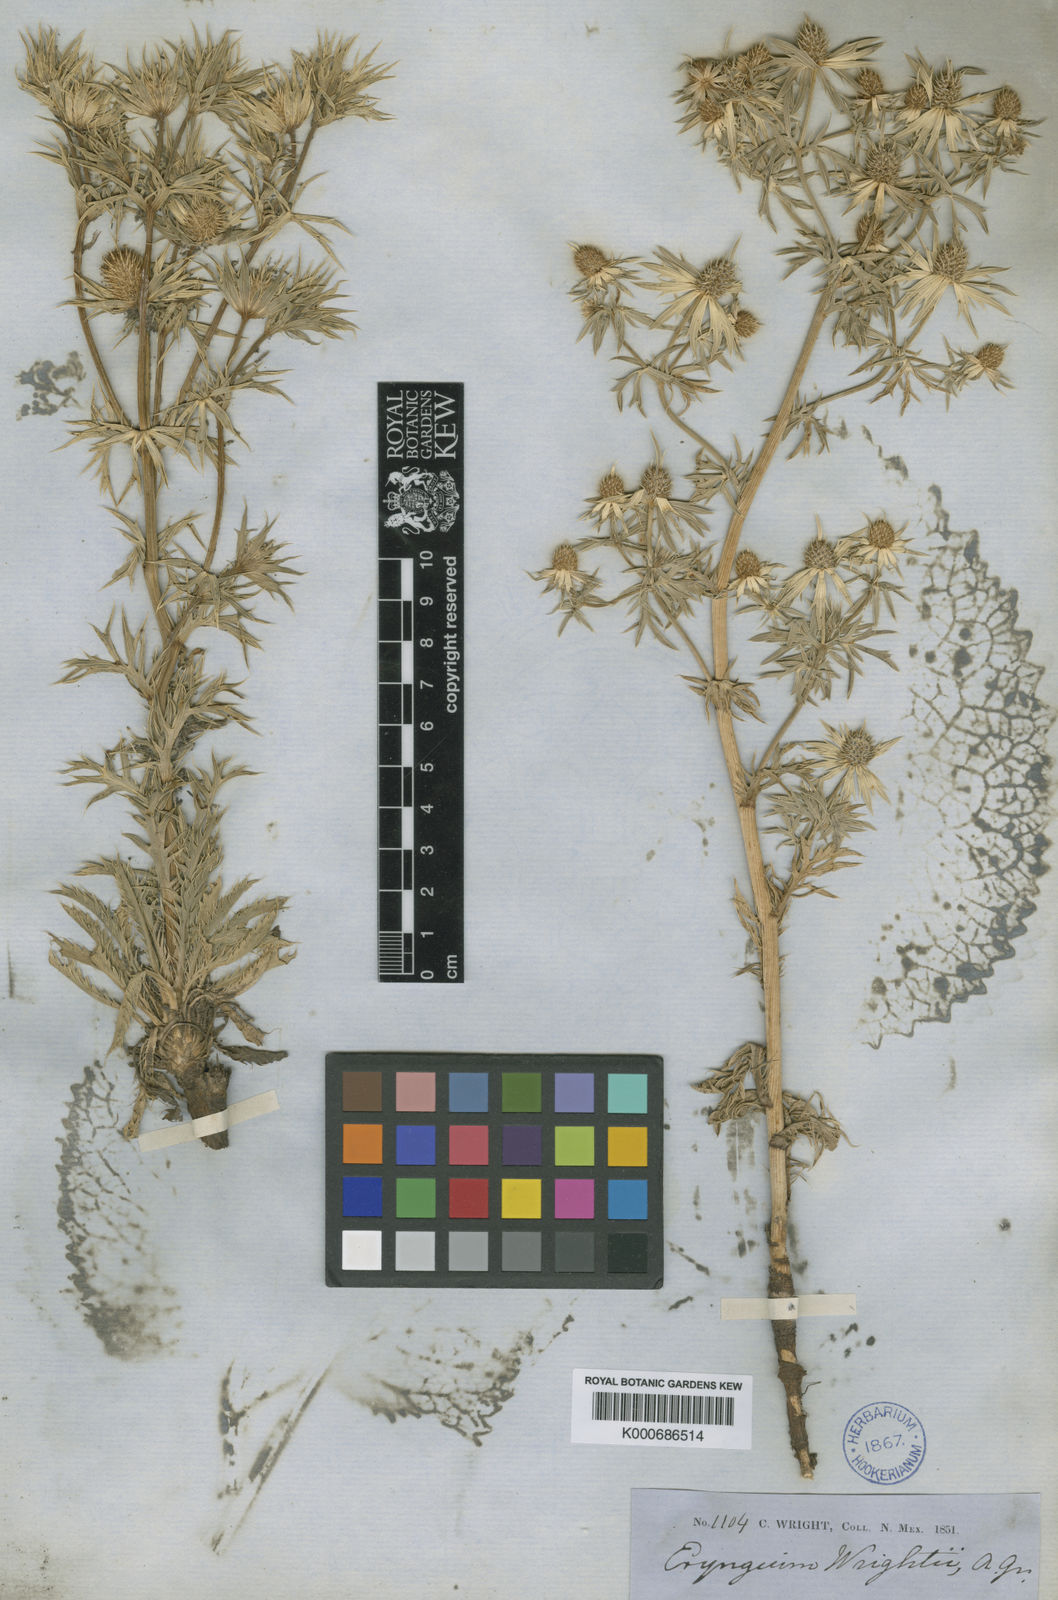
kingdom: Plantae
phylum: Tracheophyta
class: Magnoliopsida
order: Apiales
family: Apiaceae
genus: Eryngium
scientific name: Eryngium heterophyllum
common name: Mexican thistle
